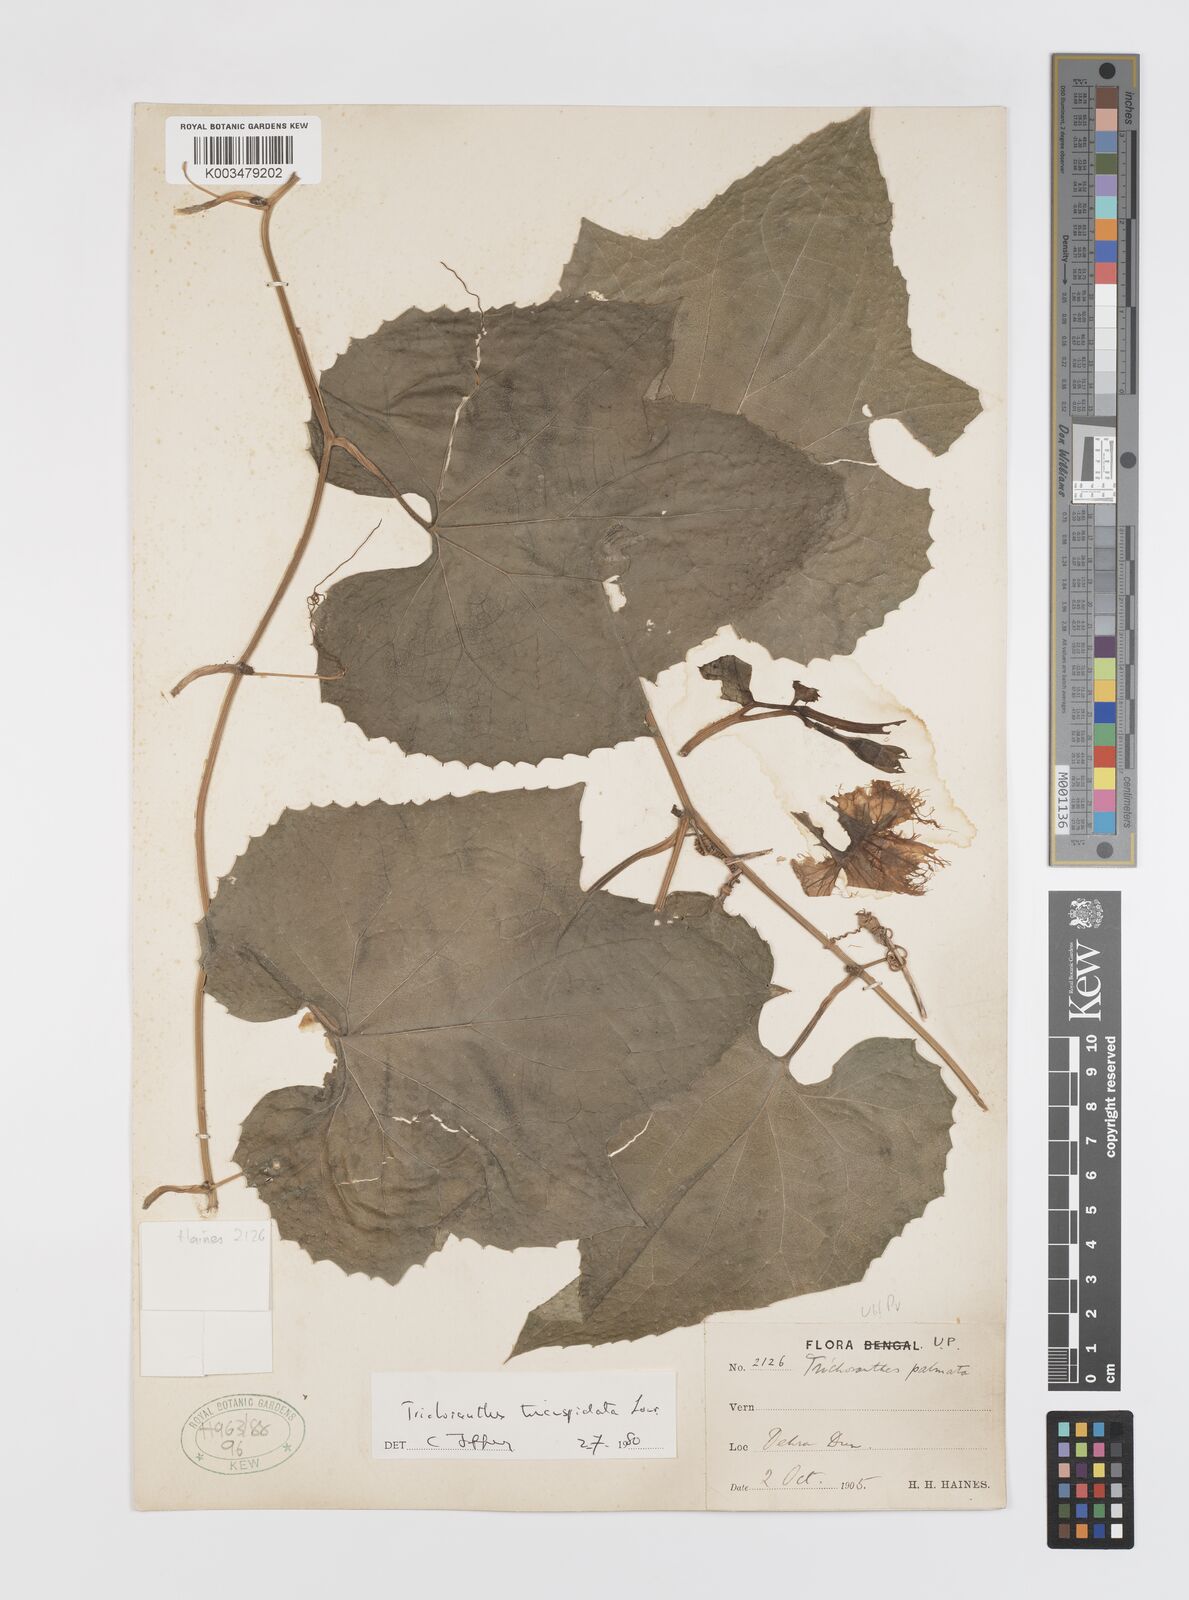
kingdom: Plantae
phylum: Tracheophyta
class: Magnoliopsida
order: Cucurbitales
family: Cucurbitaceae
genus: Trichosanthes
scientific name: Trichosanthes tricuspidata
